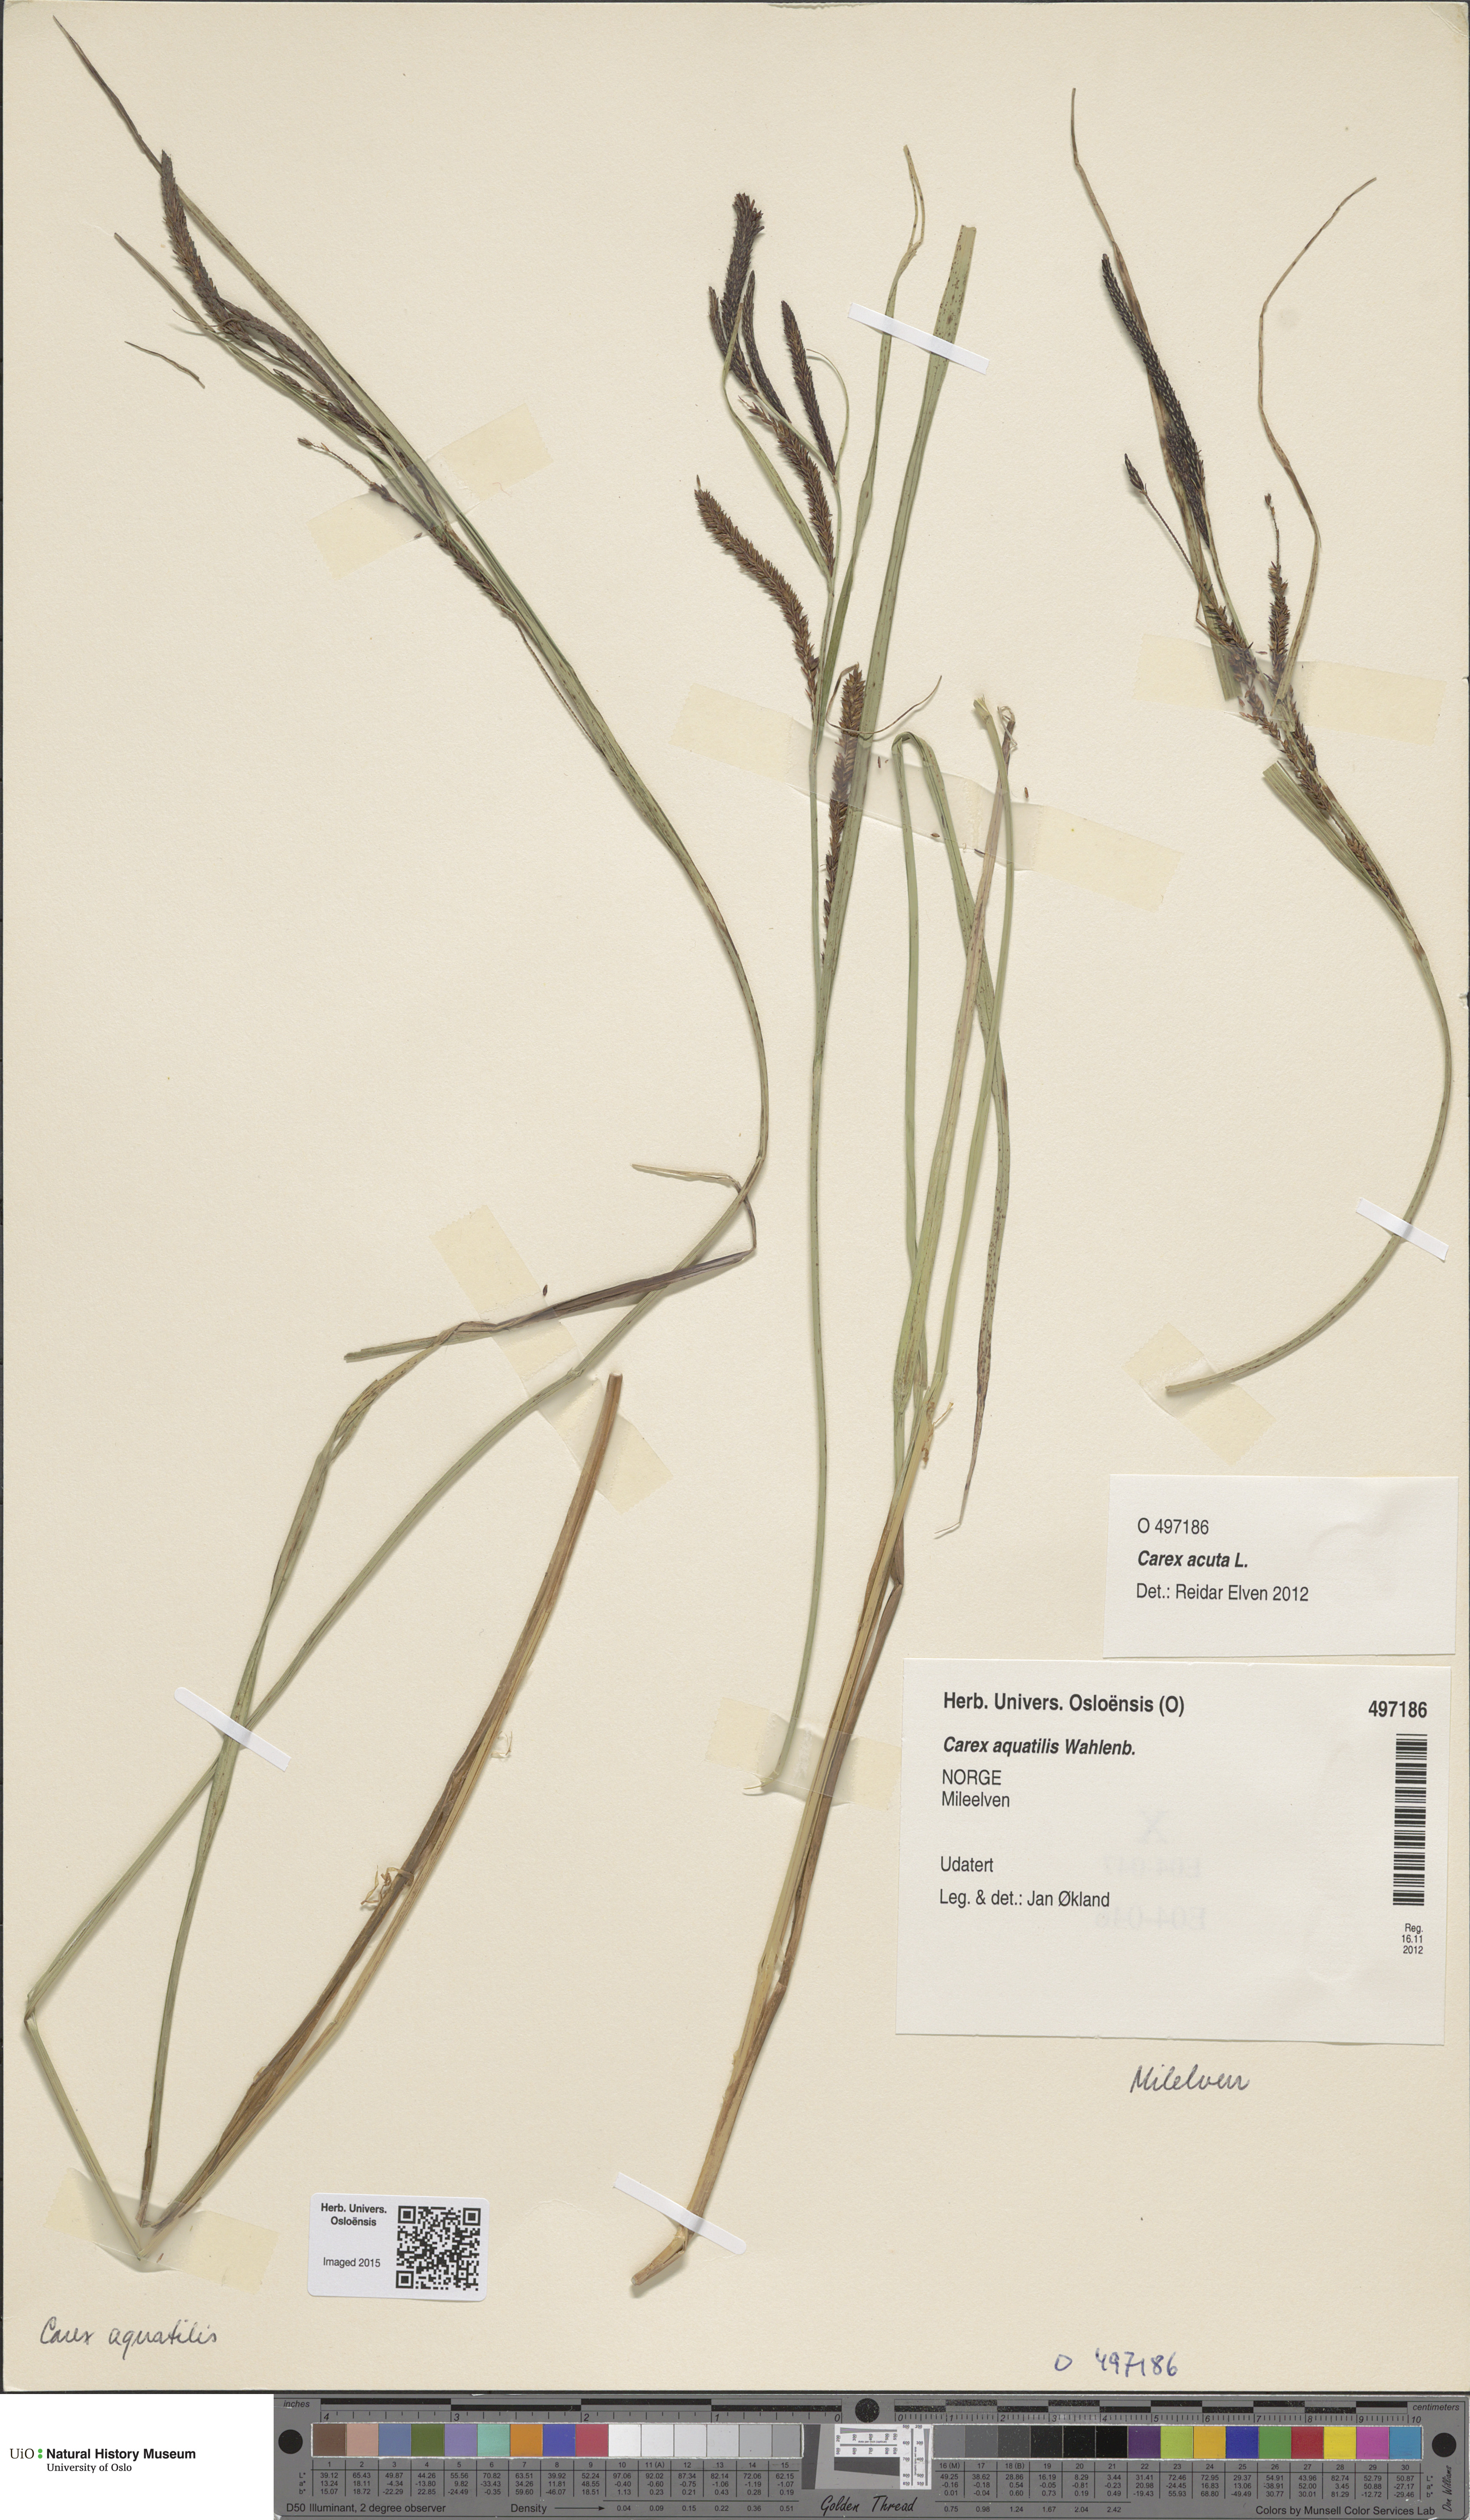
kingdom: Plantae
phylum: Tracheophyta
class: Liliopsida
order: Poales
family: Cyperaceae
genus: Carex
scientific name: Carex aquatilis
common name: Water sedge
